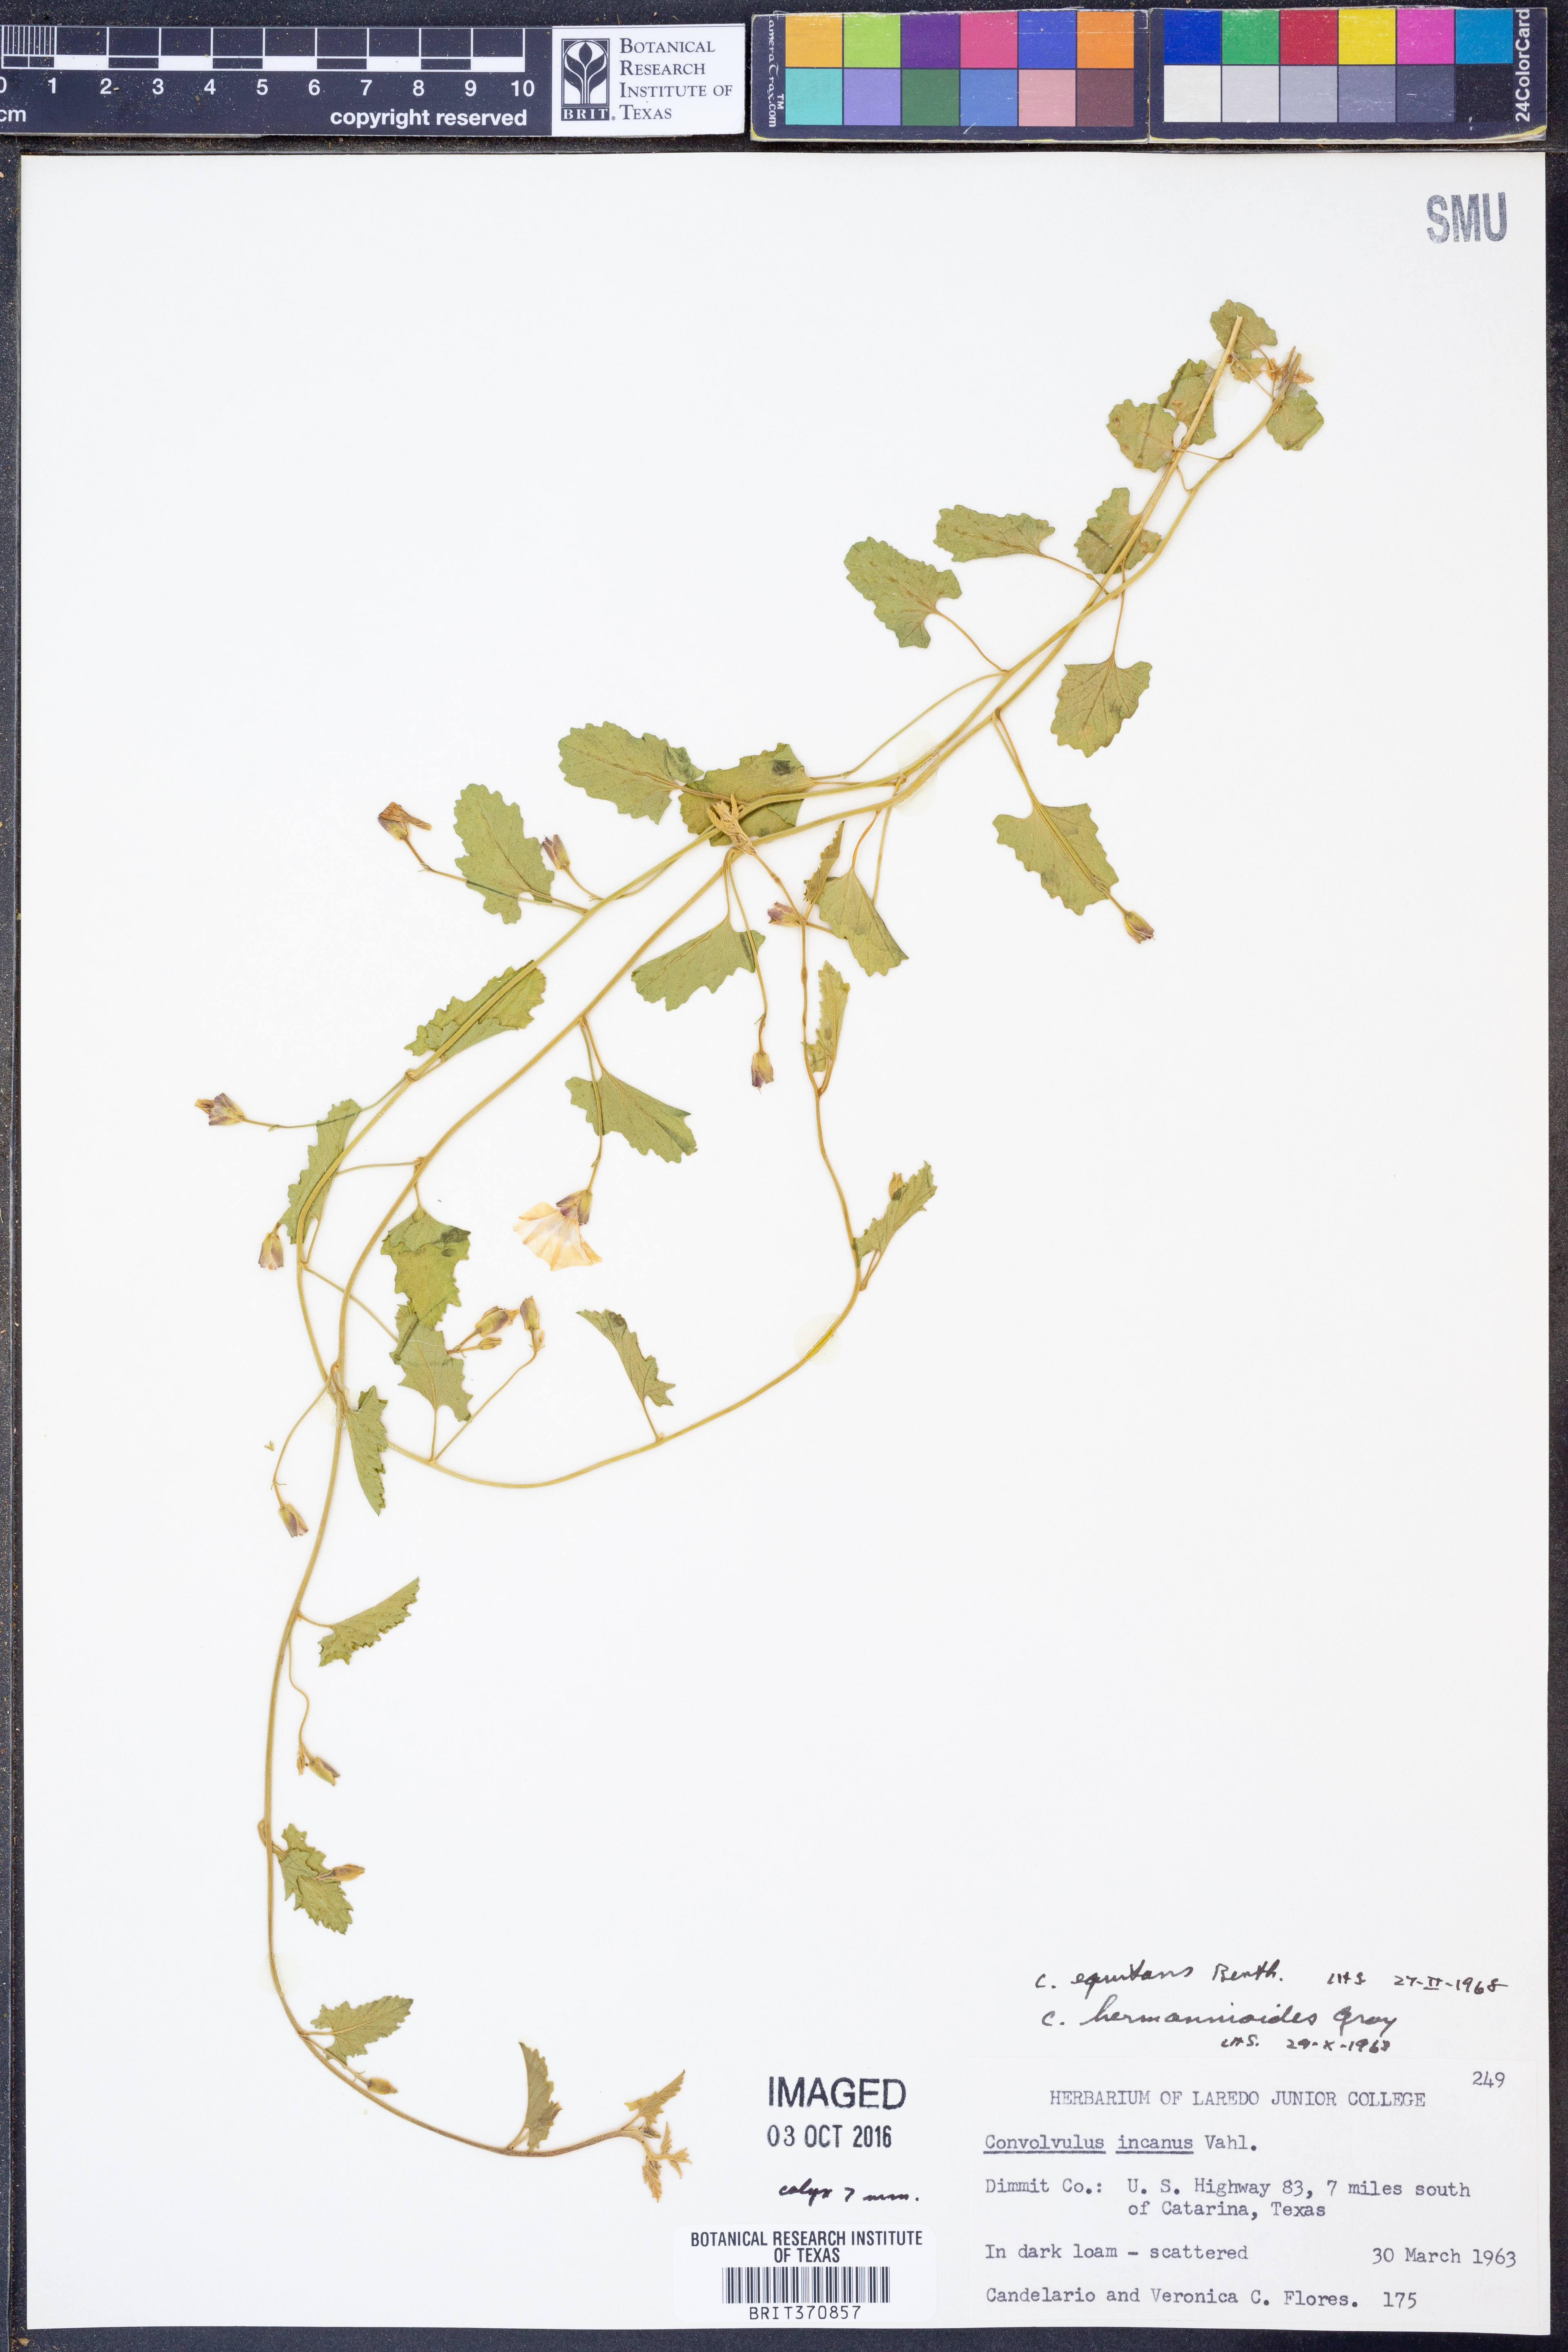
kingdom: Plantae
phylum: Tracheophyta
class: Magnoliopsida
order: Solanales
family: Convolvulaceae
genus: Convolvulus
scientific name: Convolvulus equitans
